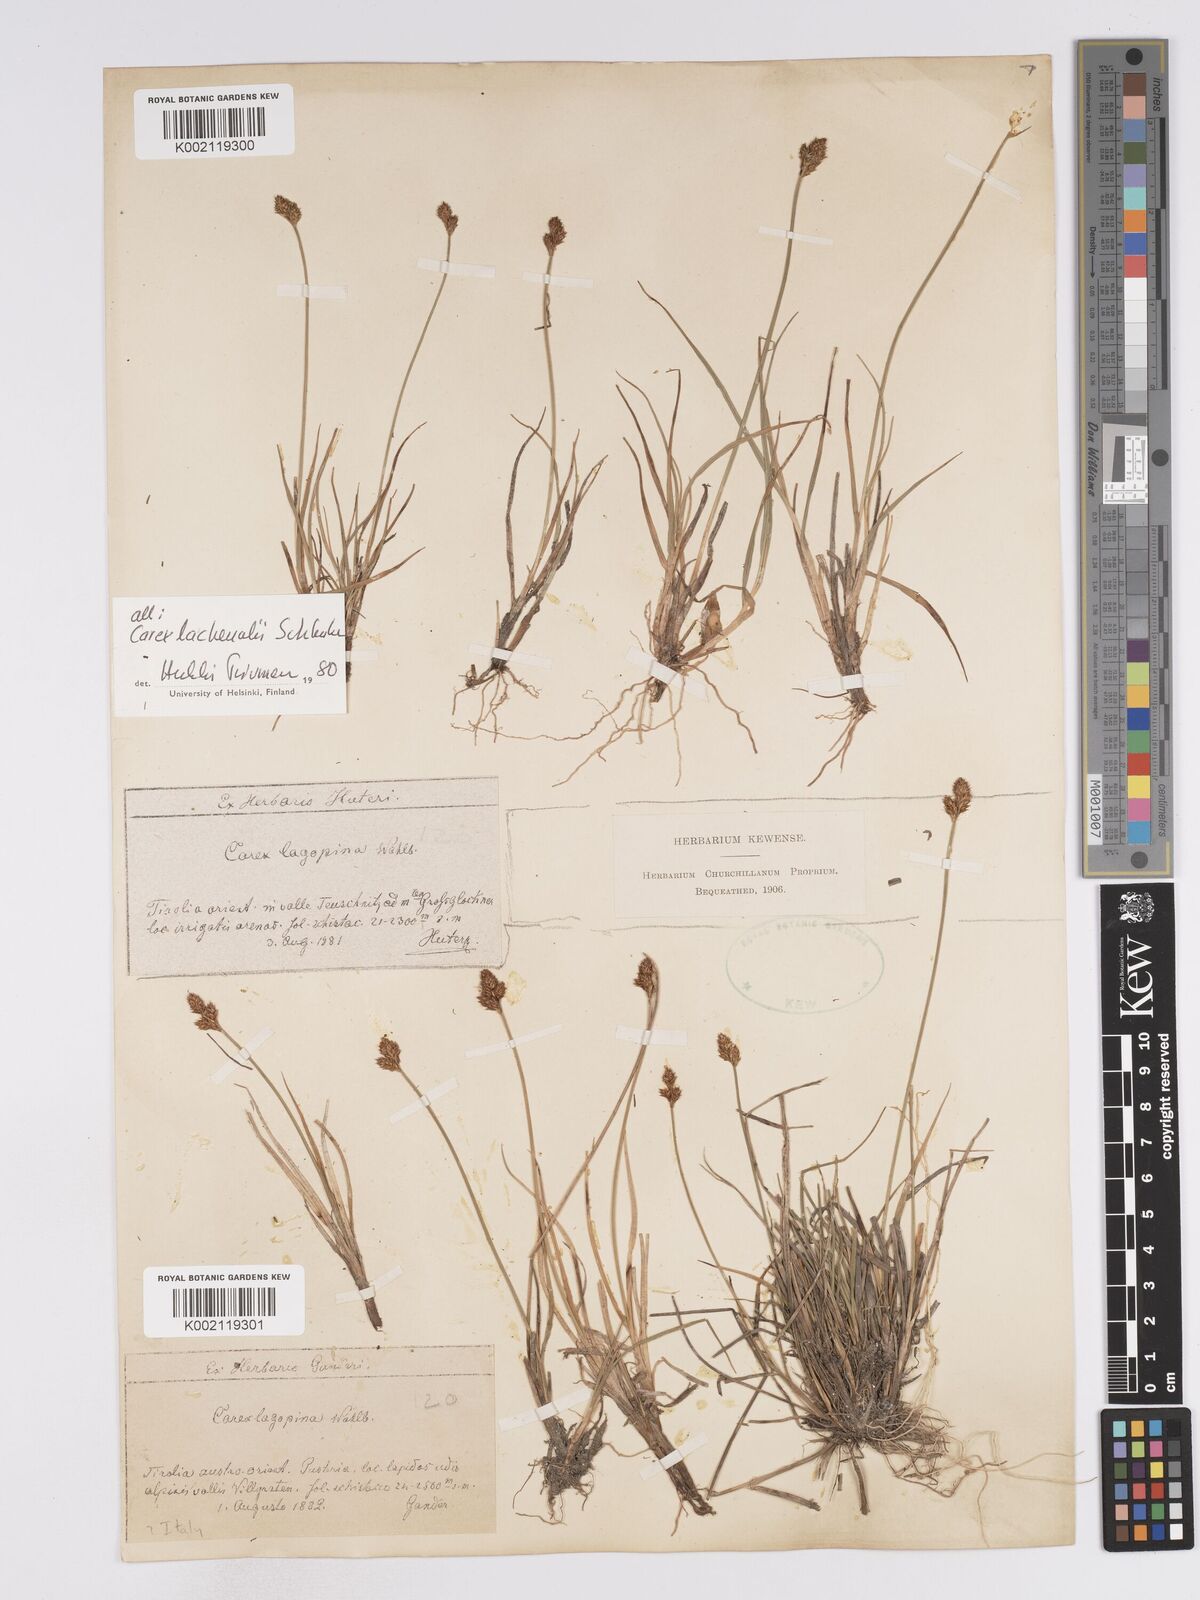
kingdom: Plantae
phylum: Tracheophyta
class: Liliopsida
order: Poales
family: Cyperaceae
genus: Carex
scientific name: Carex lachenalii
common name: Hare's-foot sedge
